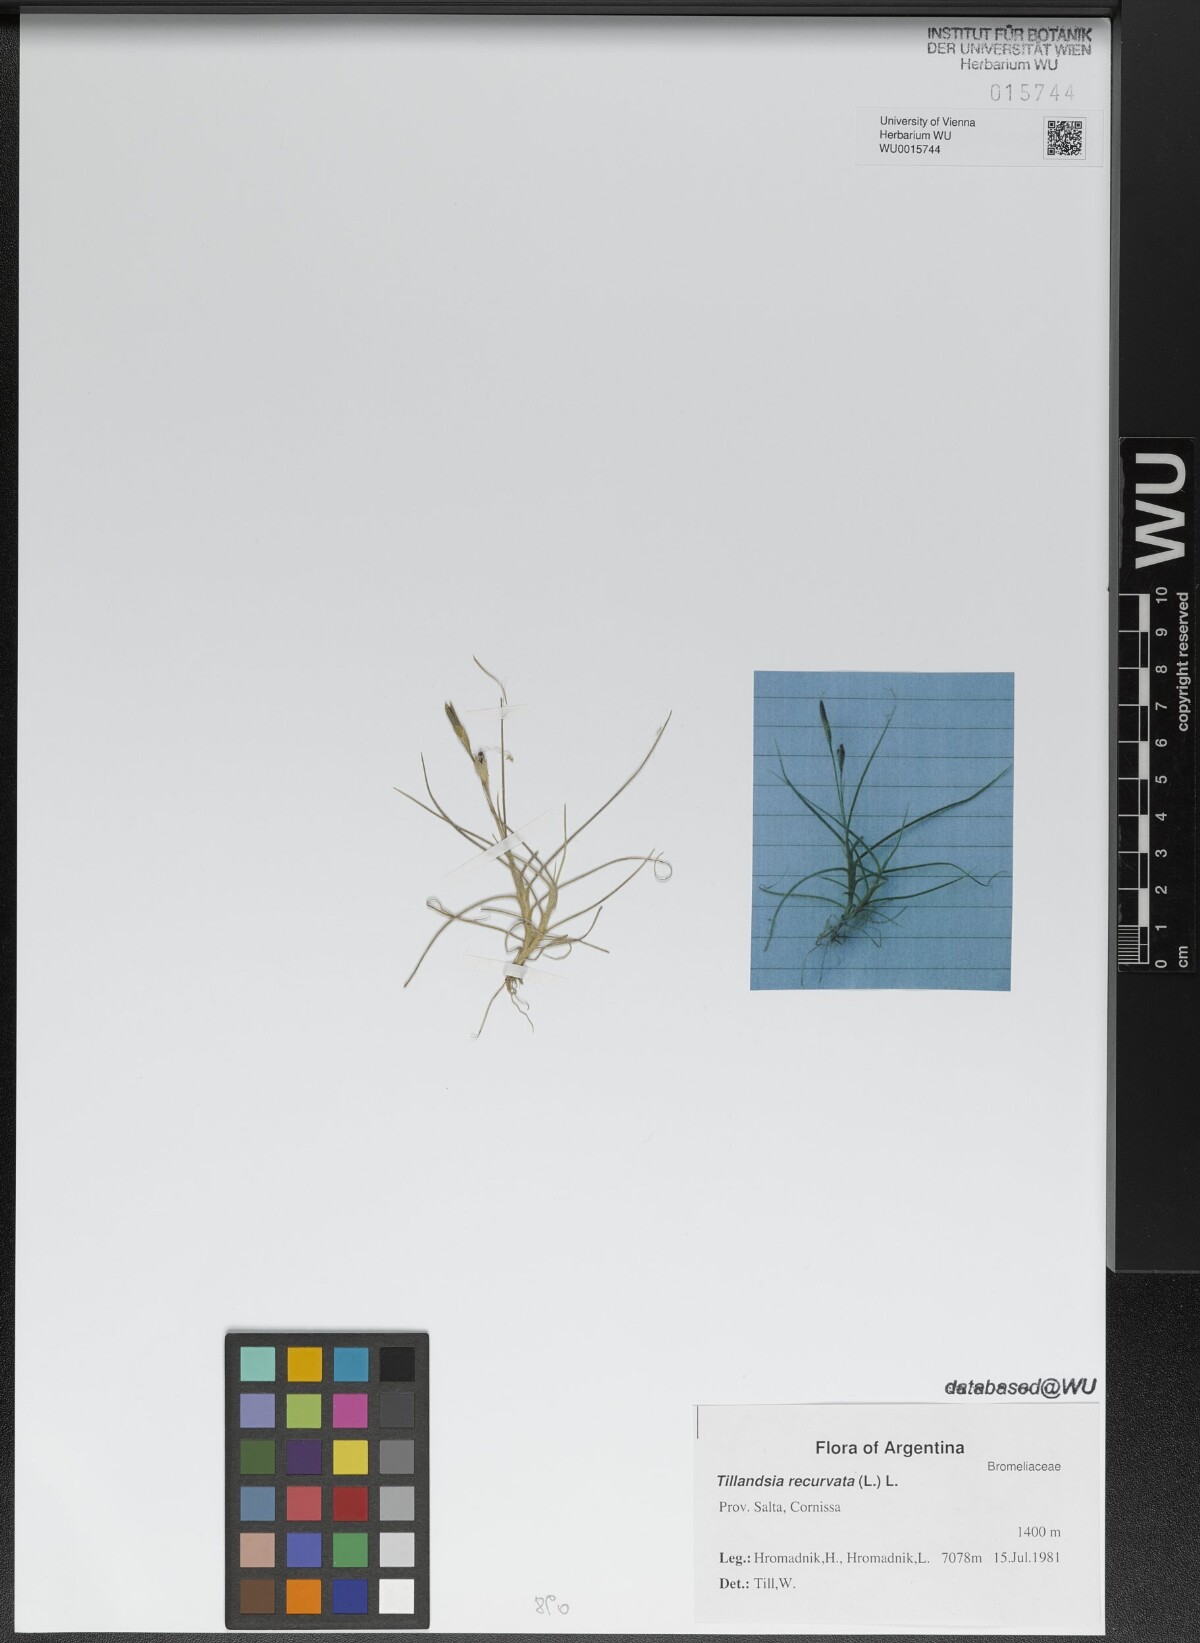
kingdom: Plantae
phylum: Tracheophyta
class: Liliopsida
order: Poales
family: Bromeliaceae
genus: Tillandsia
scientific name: Tillandsia recurvata
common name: Small ballmoss
